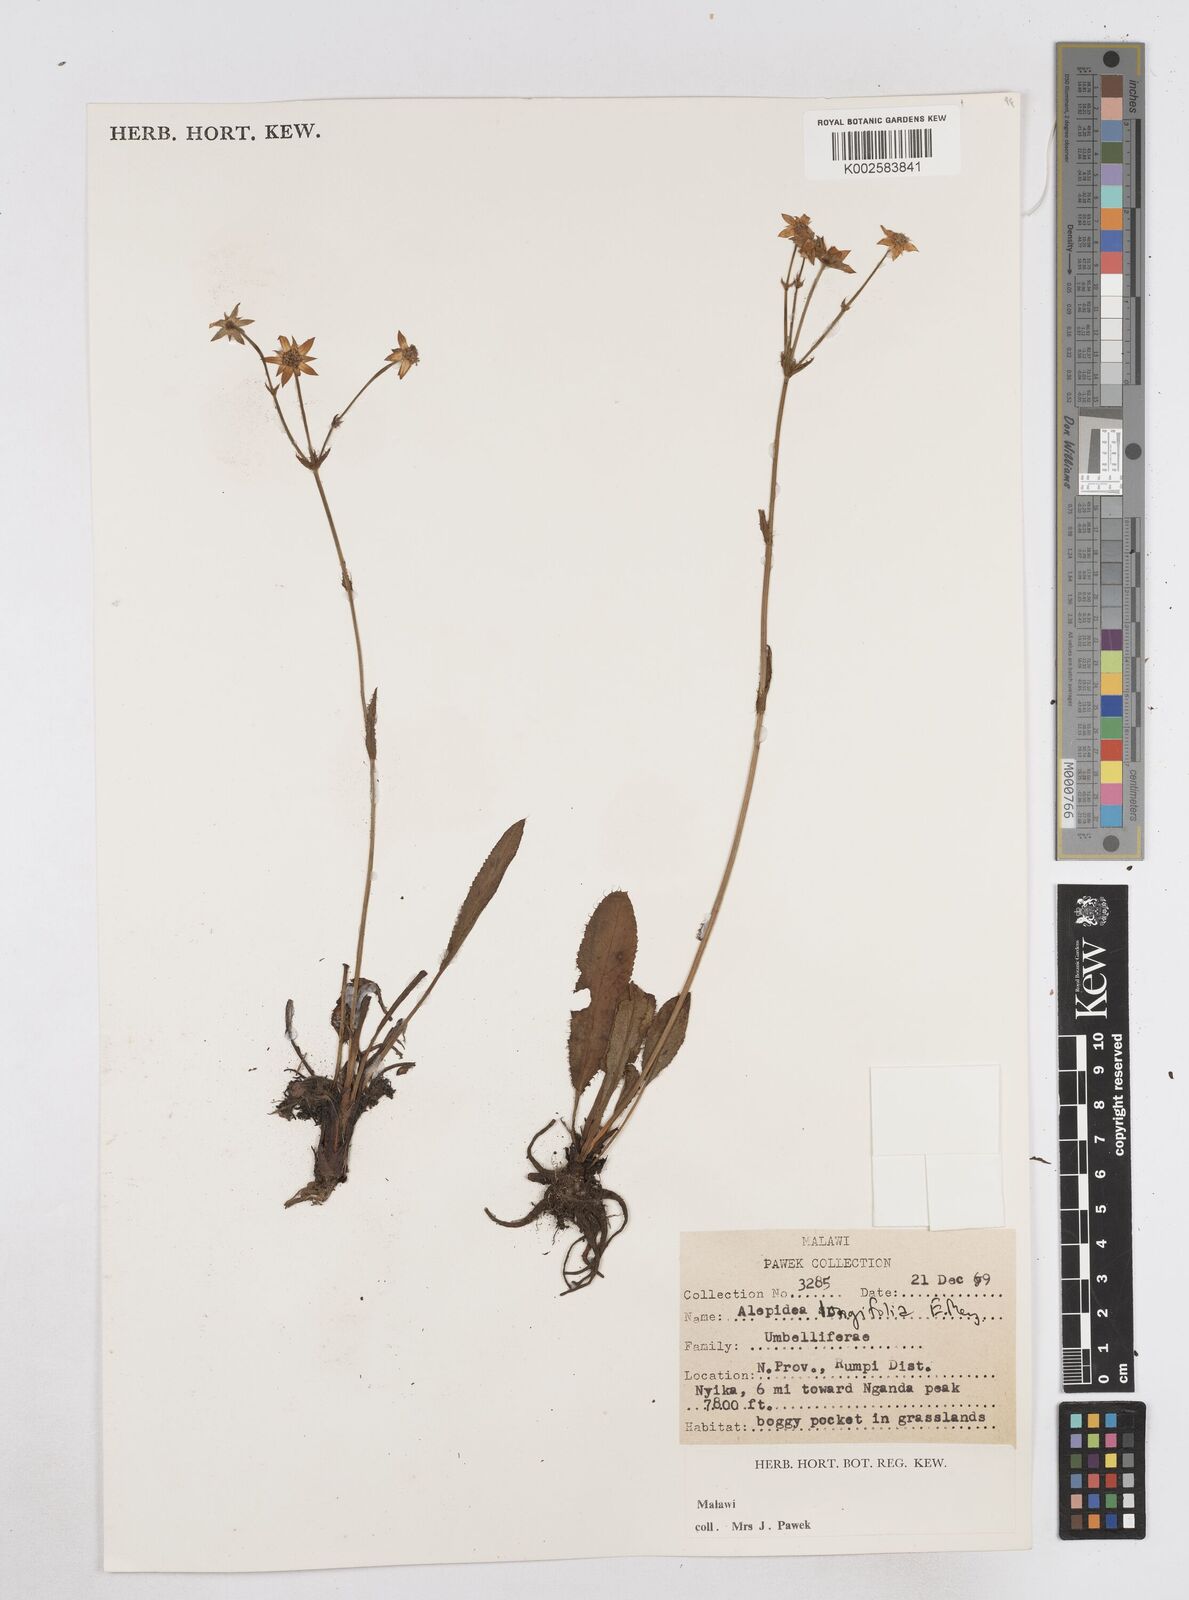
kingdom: Plantae
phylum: Tracheophyta
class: Magnoliopsida
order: Apiales
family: Apiaceae
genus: Alepidea
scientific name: Alepidea peduncularis
